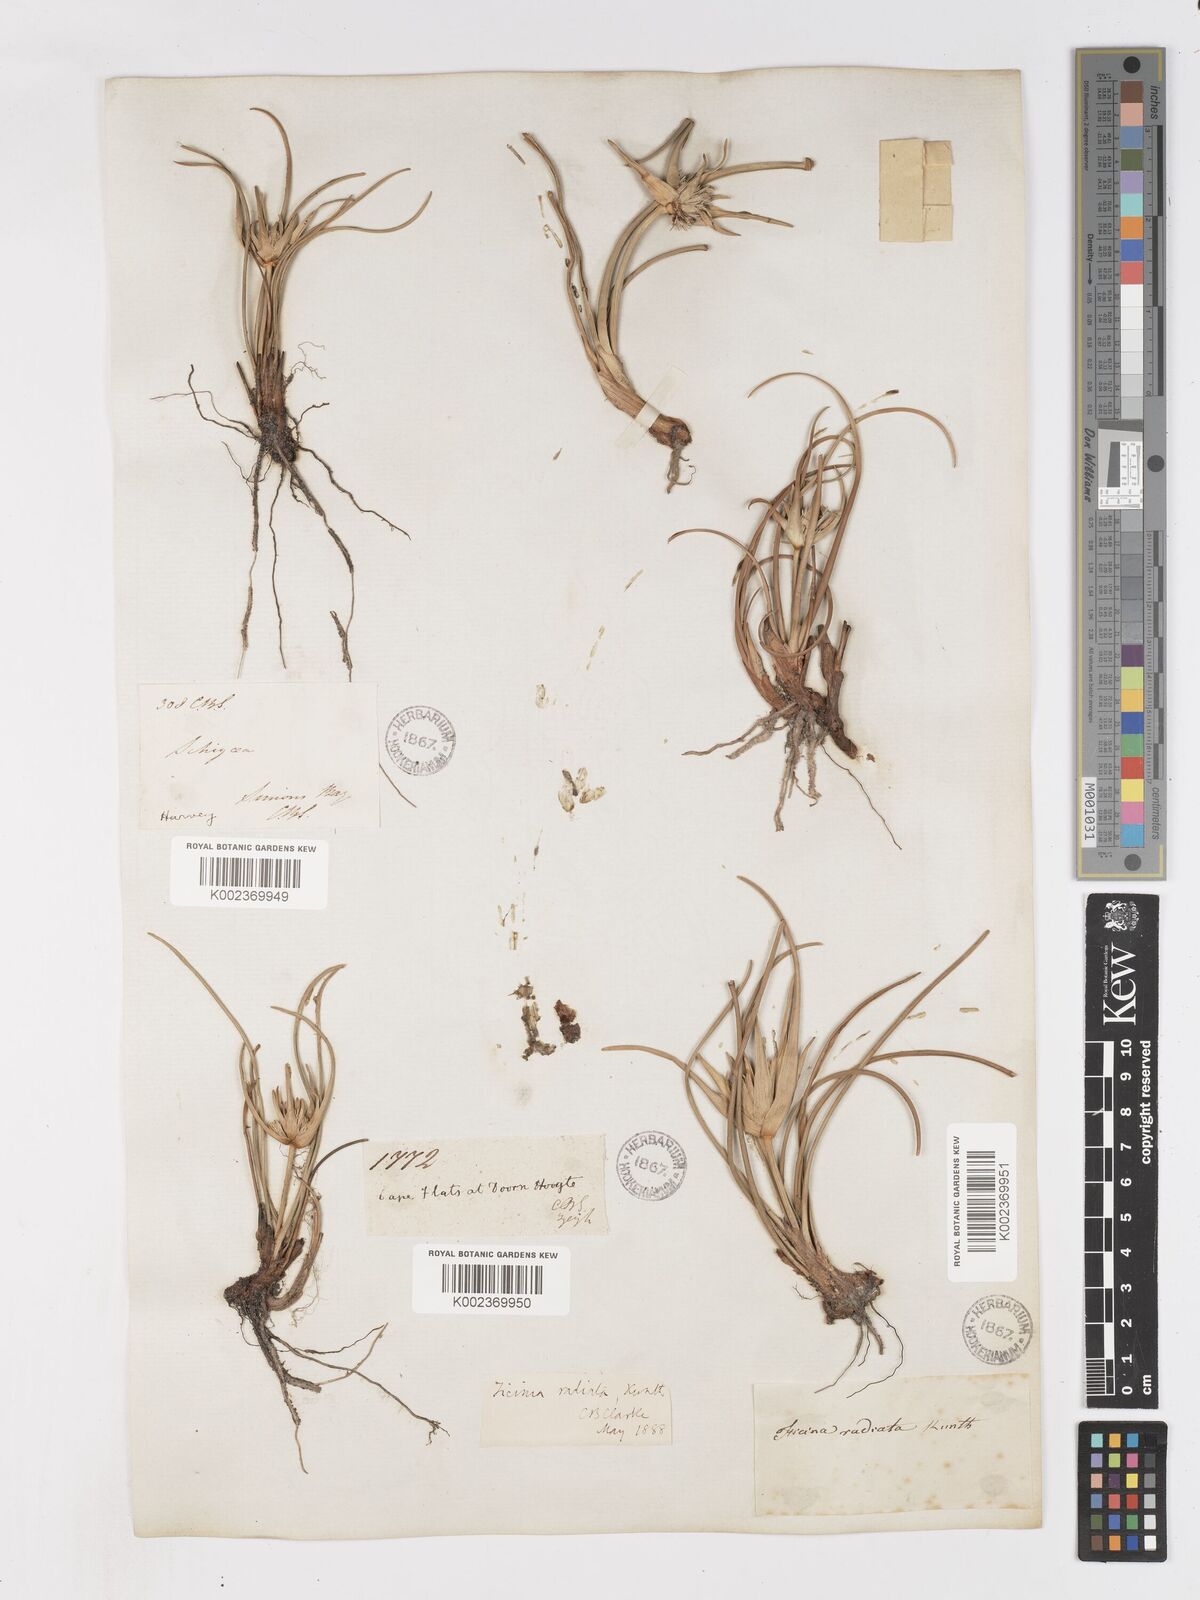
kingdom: Plantae
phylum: Tracheophyta
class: Liliopsida
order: Poales
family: Cyperaceae
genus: Ficinia
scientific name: Ficinia radiata
